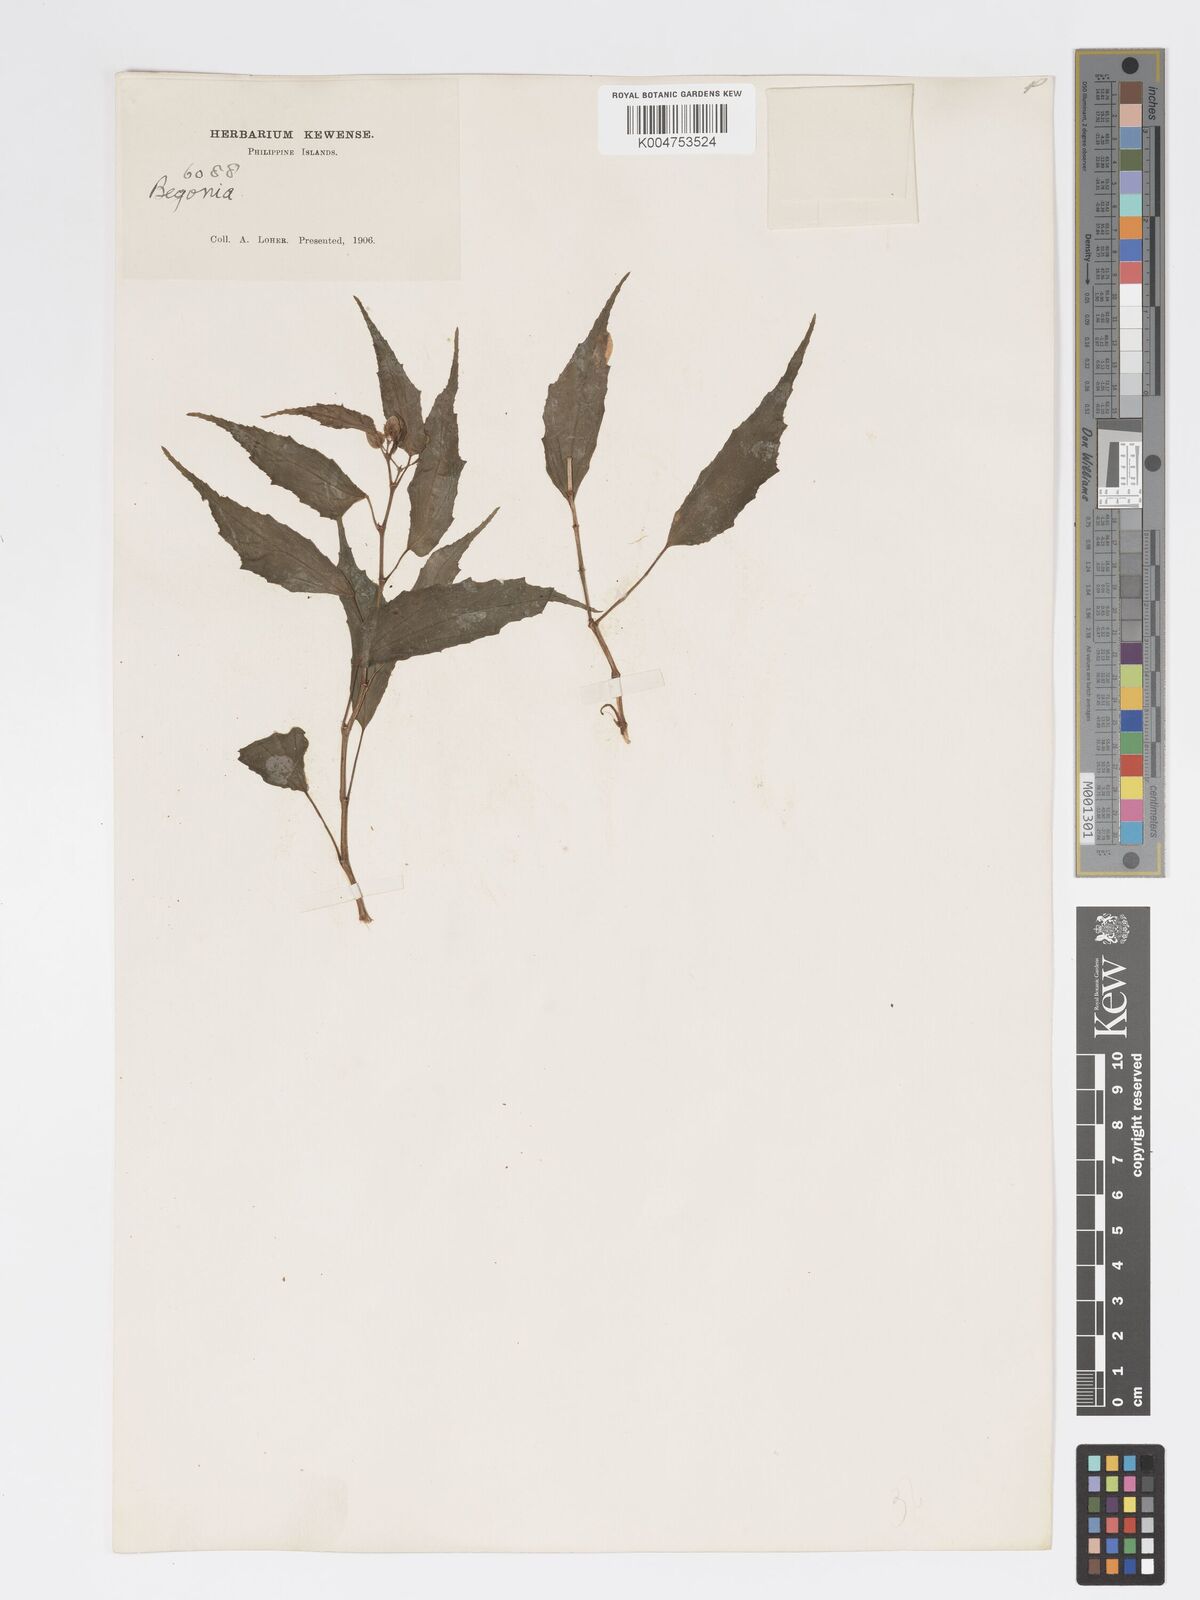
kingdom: Plantae
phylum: Tracheophyta
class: Magnoliopsida
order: Cucurbitales
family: Begoniaceae
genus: Begonia
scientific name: Begonia
